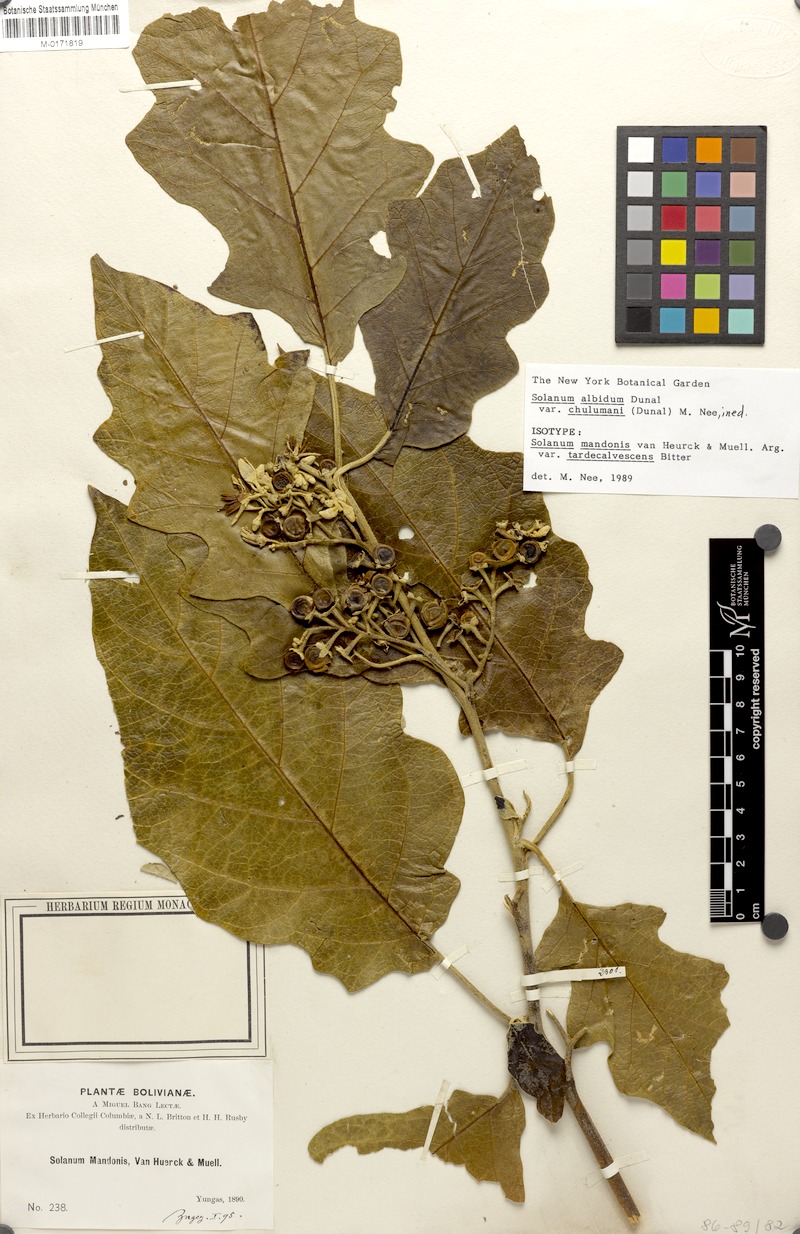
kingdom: Plantae
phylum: Tracheophyta
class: Magnoliopsida
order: Solanales
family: Solanaceae
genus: Solanum
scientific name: Solanum albidum
